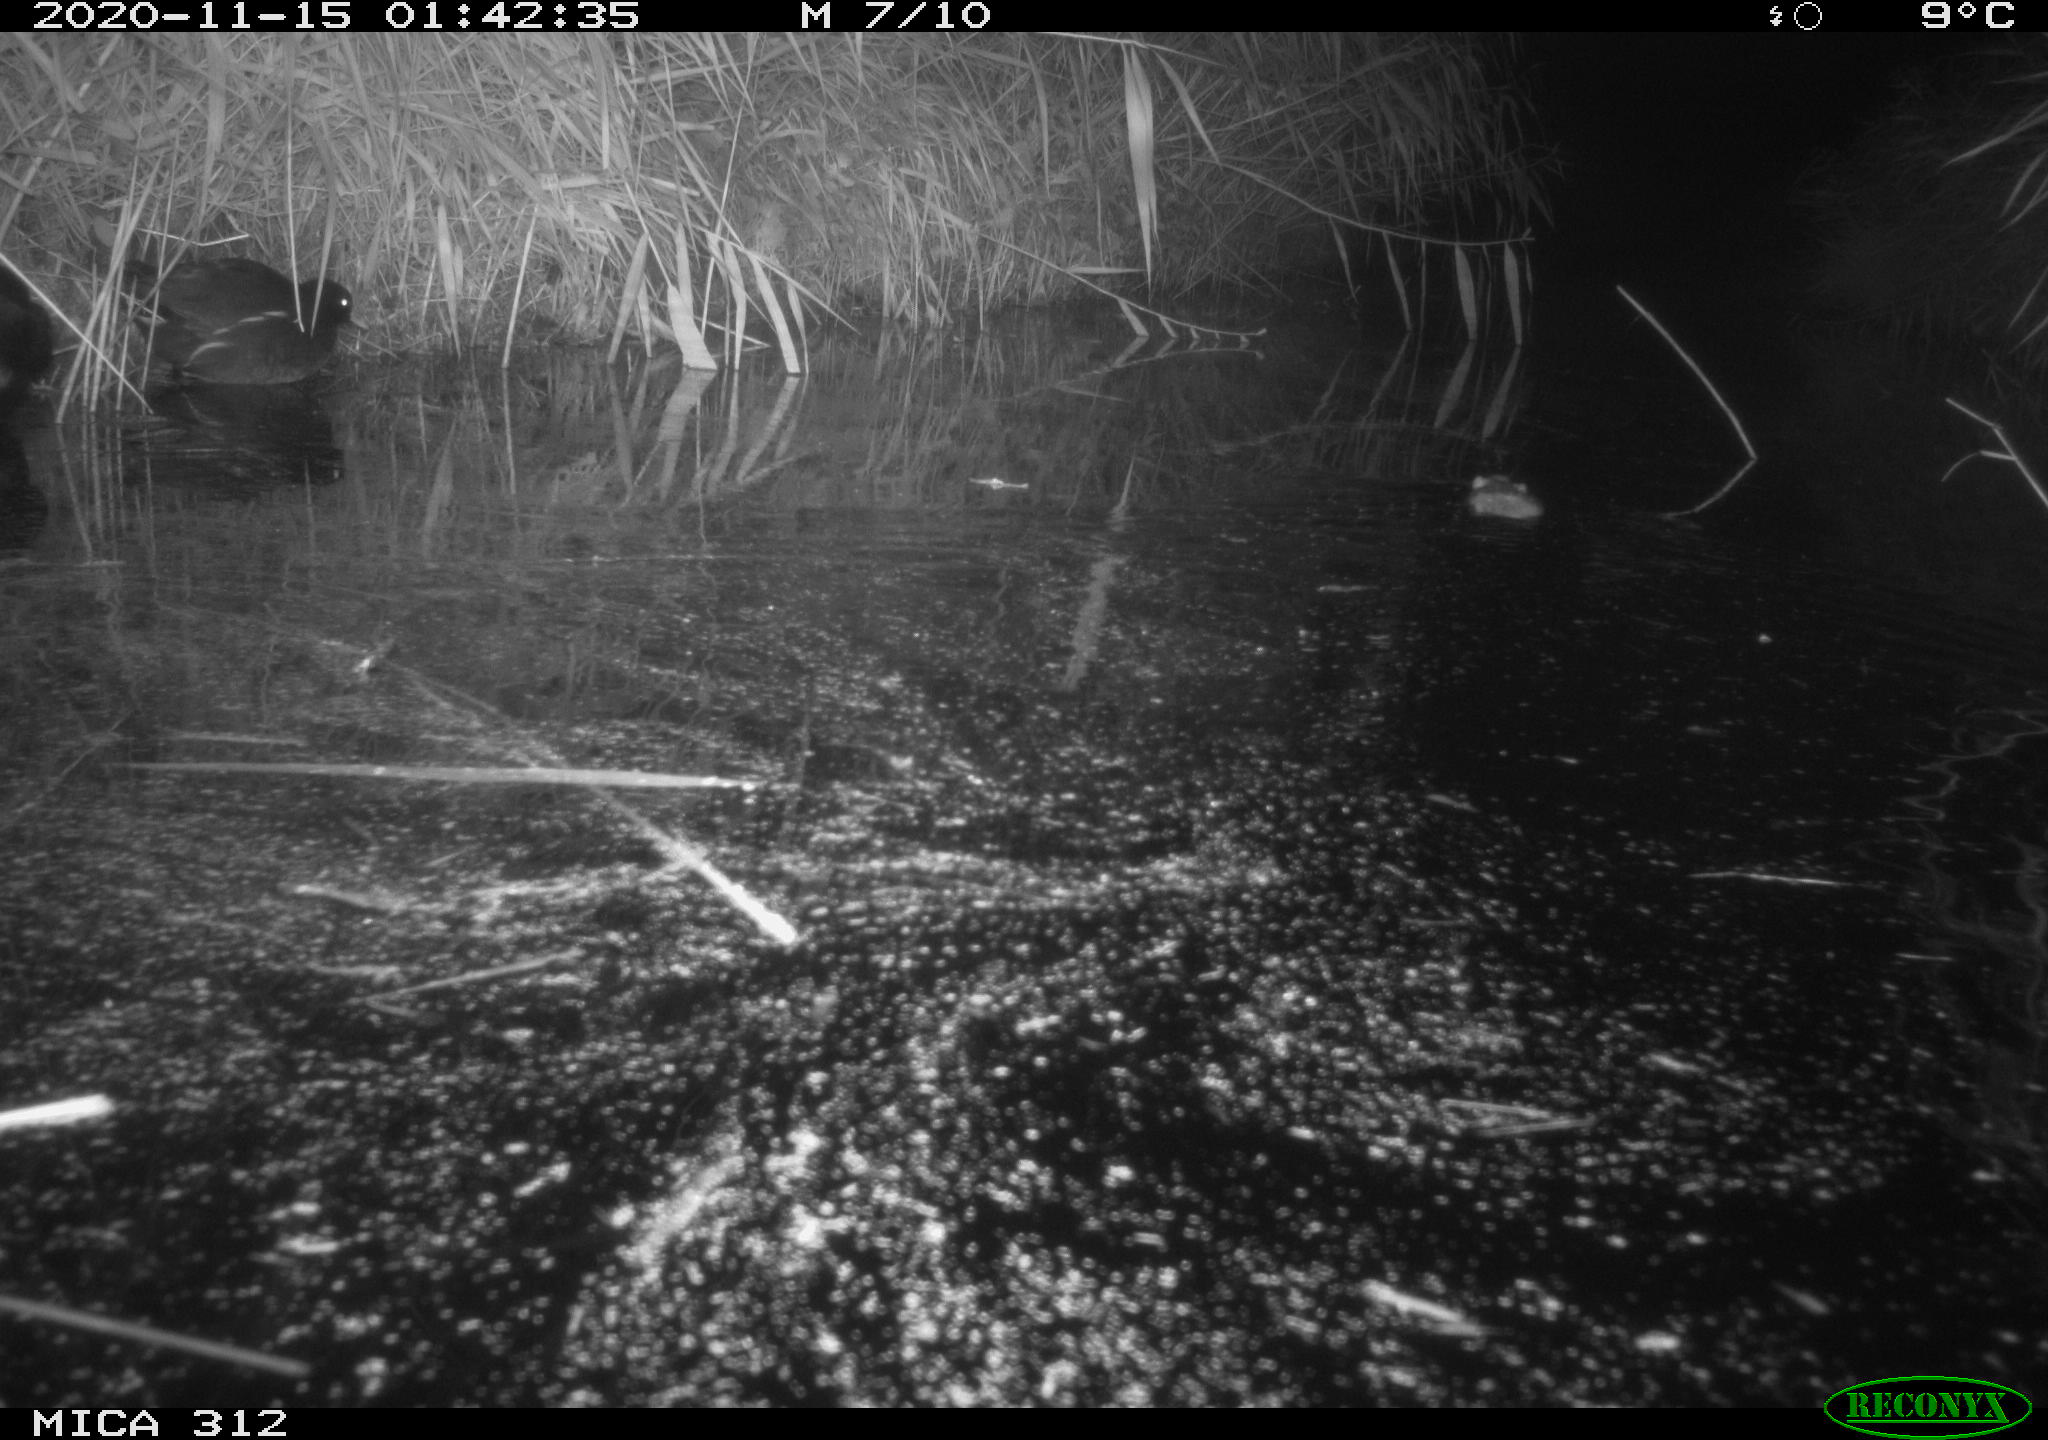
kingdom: Animalia
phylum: Chordata
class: Mammalia
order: Rodentia
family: Muridae
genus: Rattus
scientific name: Rattus norvegicus
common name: Brown rat
